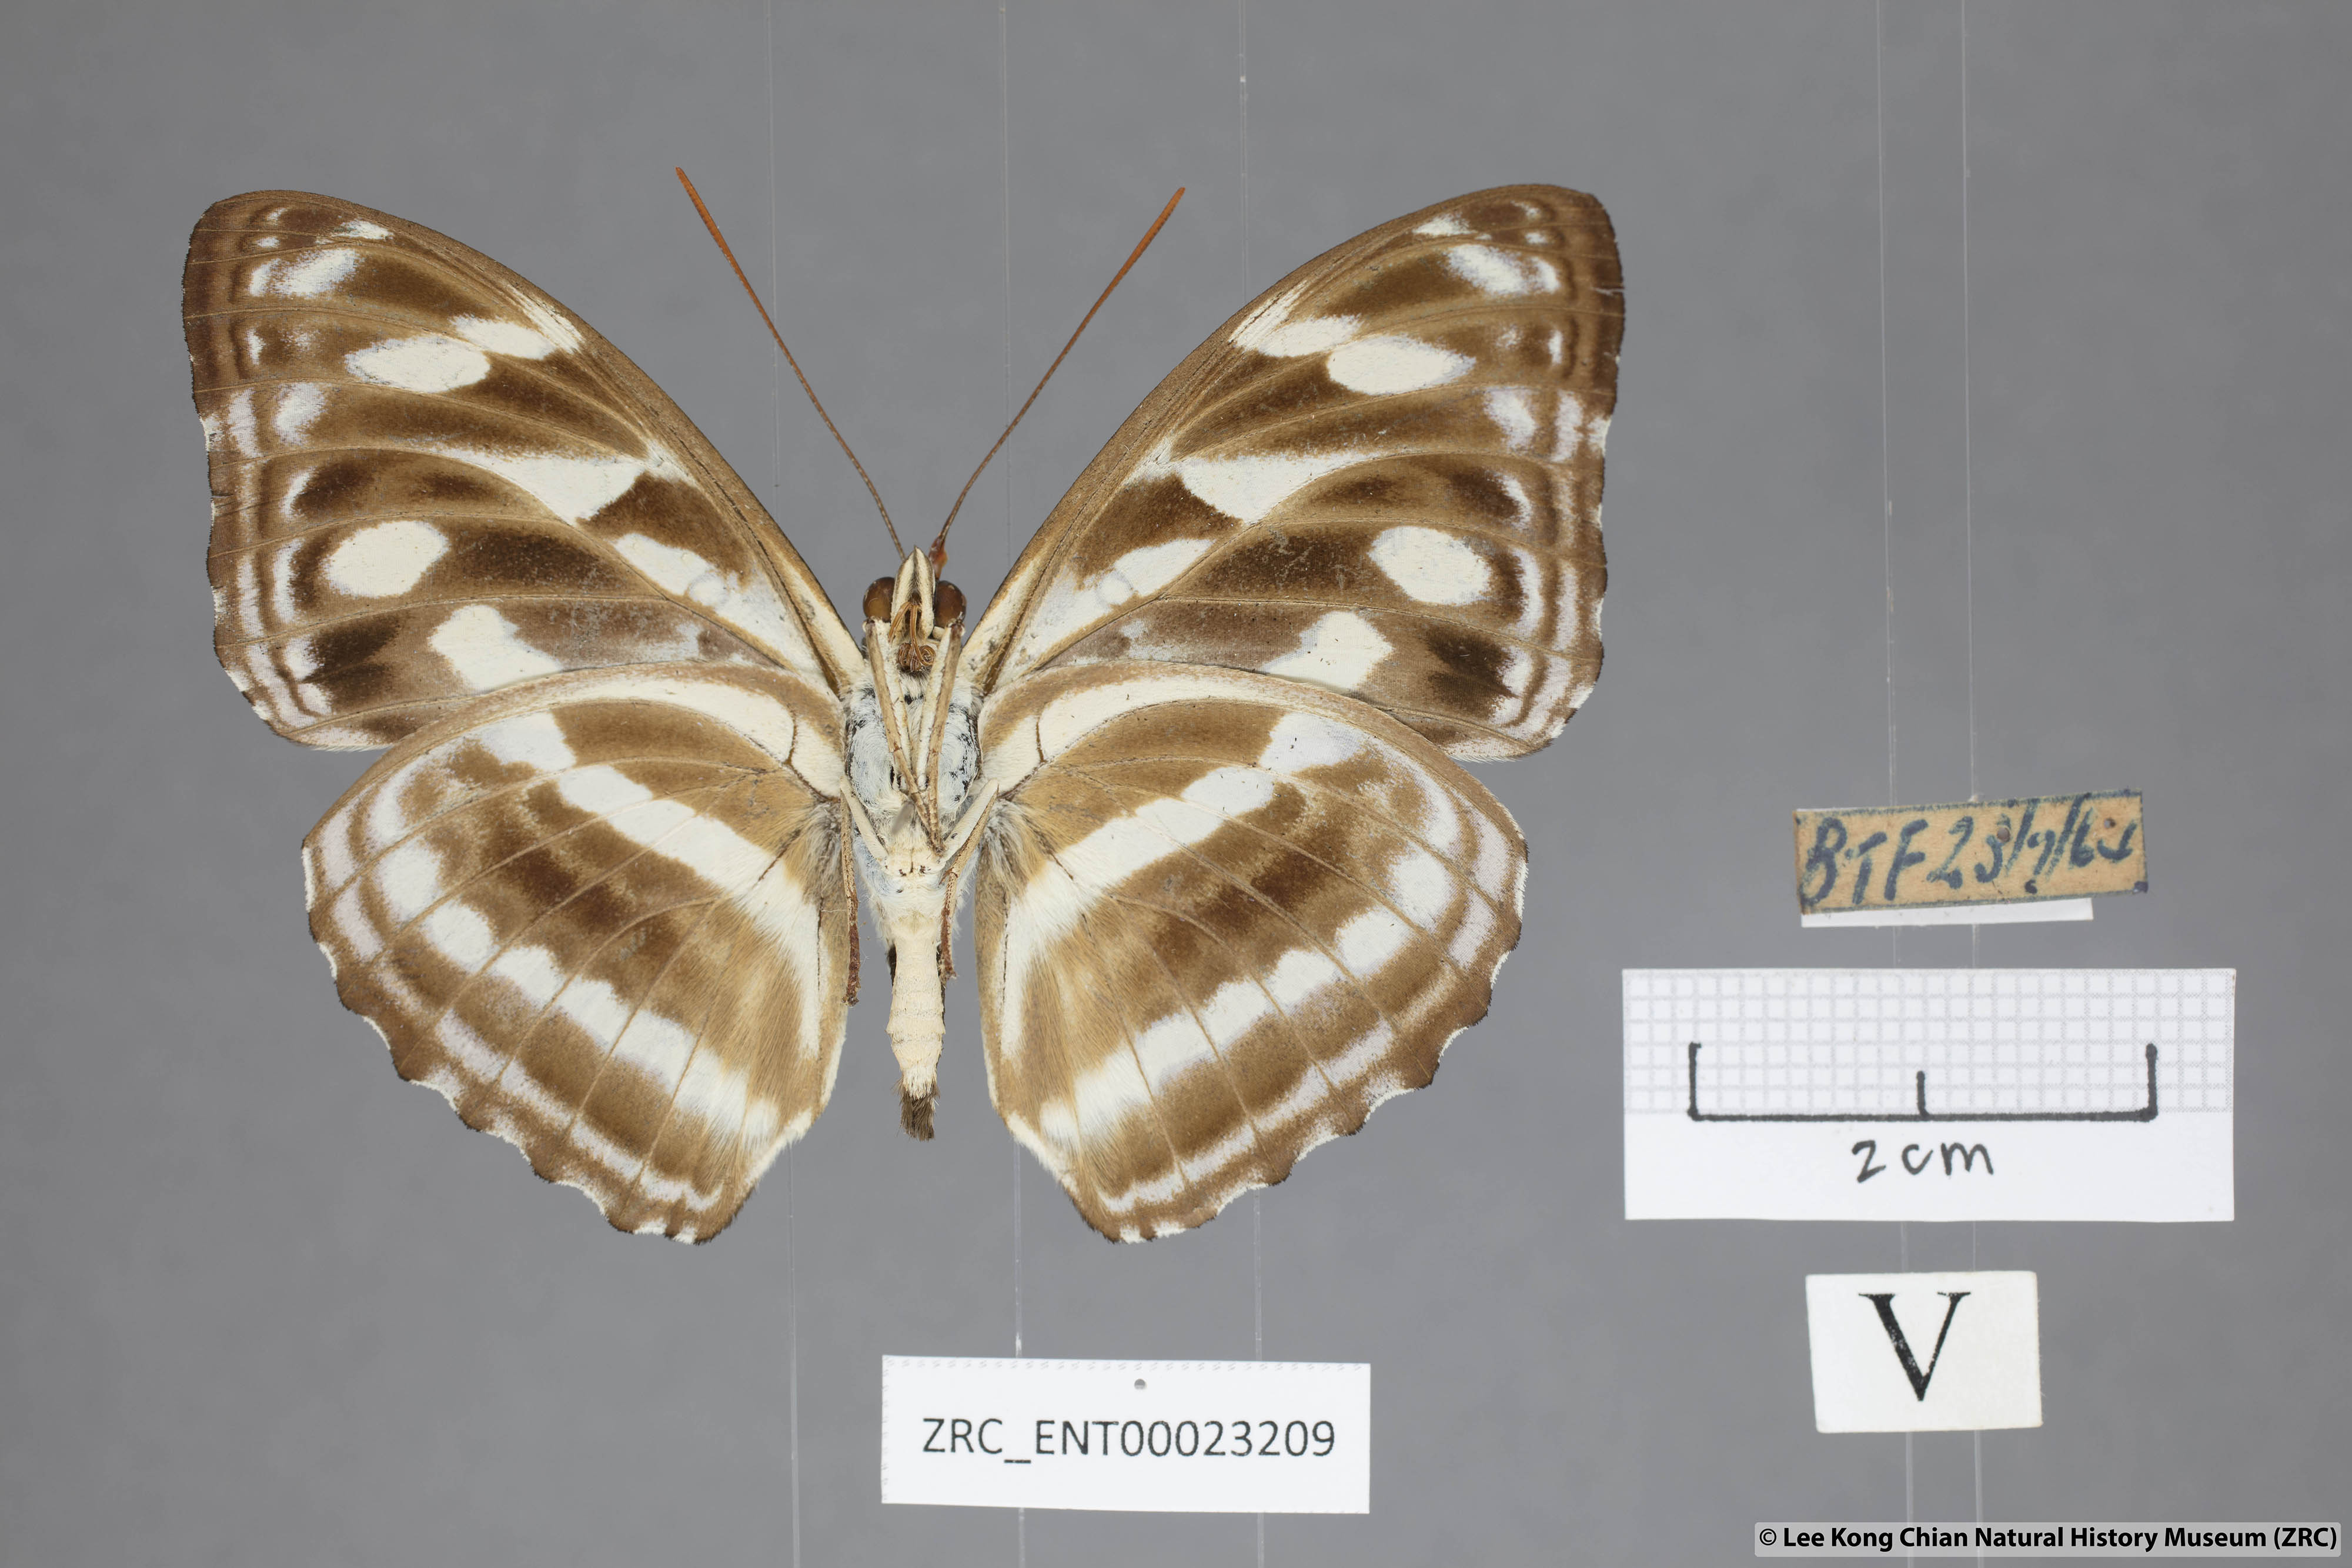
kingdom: Animalia
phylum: Arthropoda
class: Insecta
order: Lepidoptera
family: Nymphalidae
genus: Pantoporia
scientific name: Pantoporia larymna
